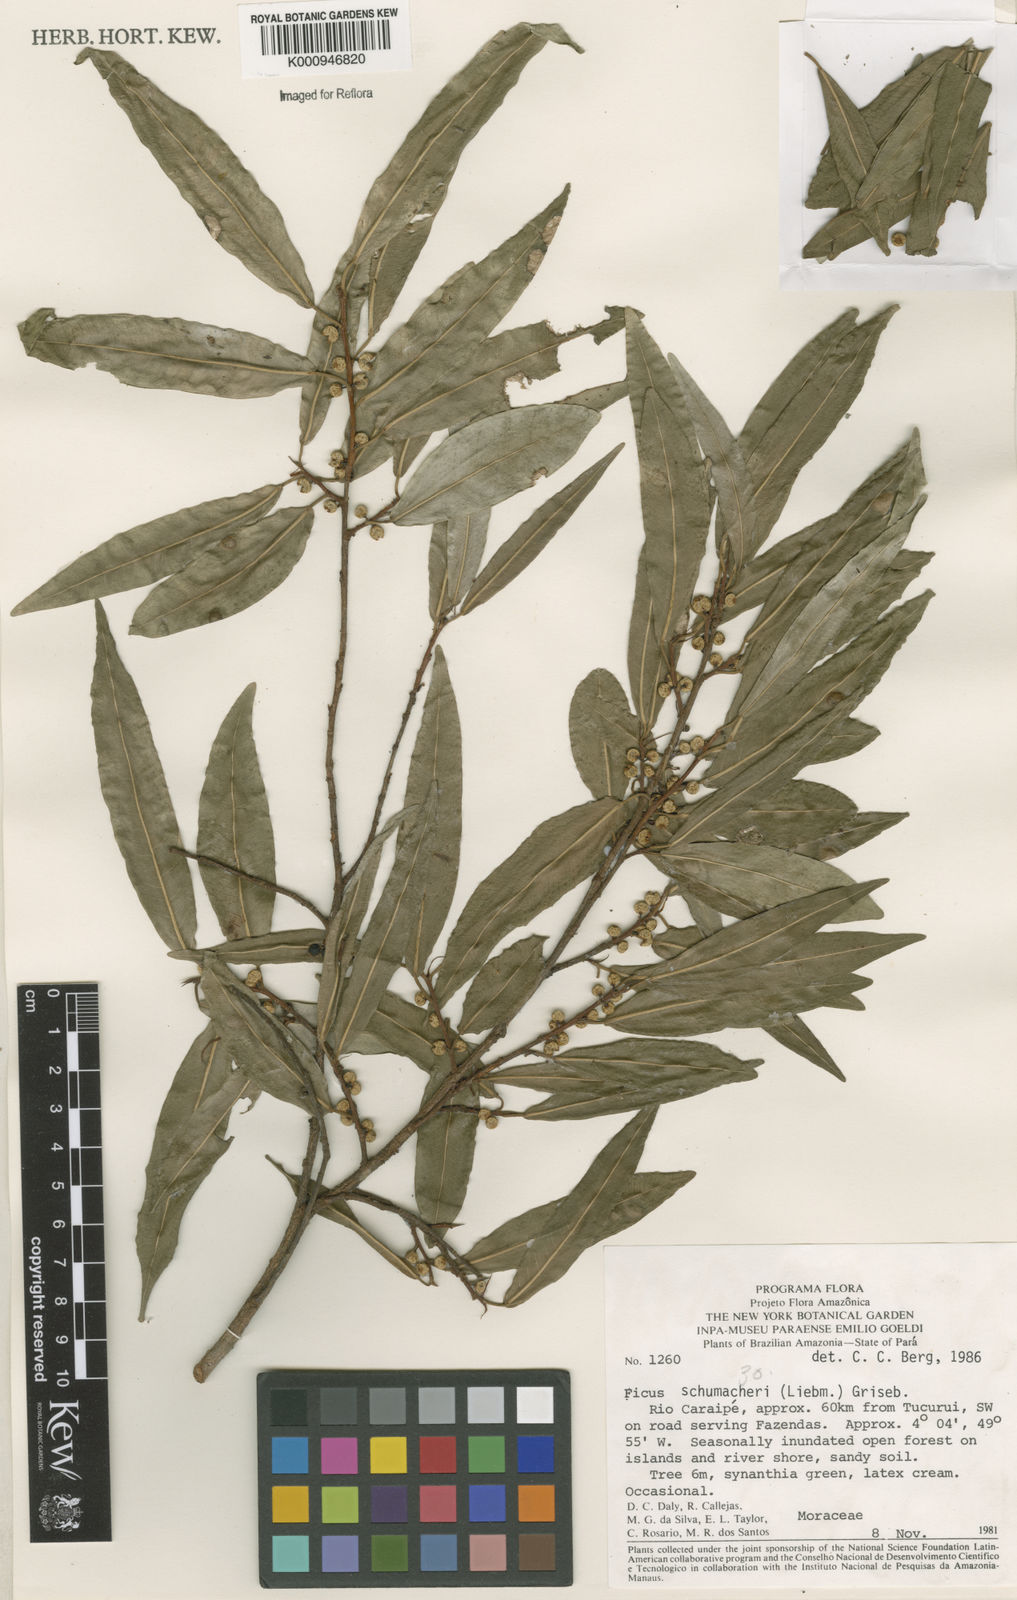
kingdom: Plantae
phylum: Tracheophyta
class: Magnoliopsida
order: Rosales
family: Moraceae
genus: Ficus
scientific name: Ficus schumacheri
